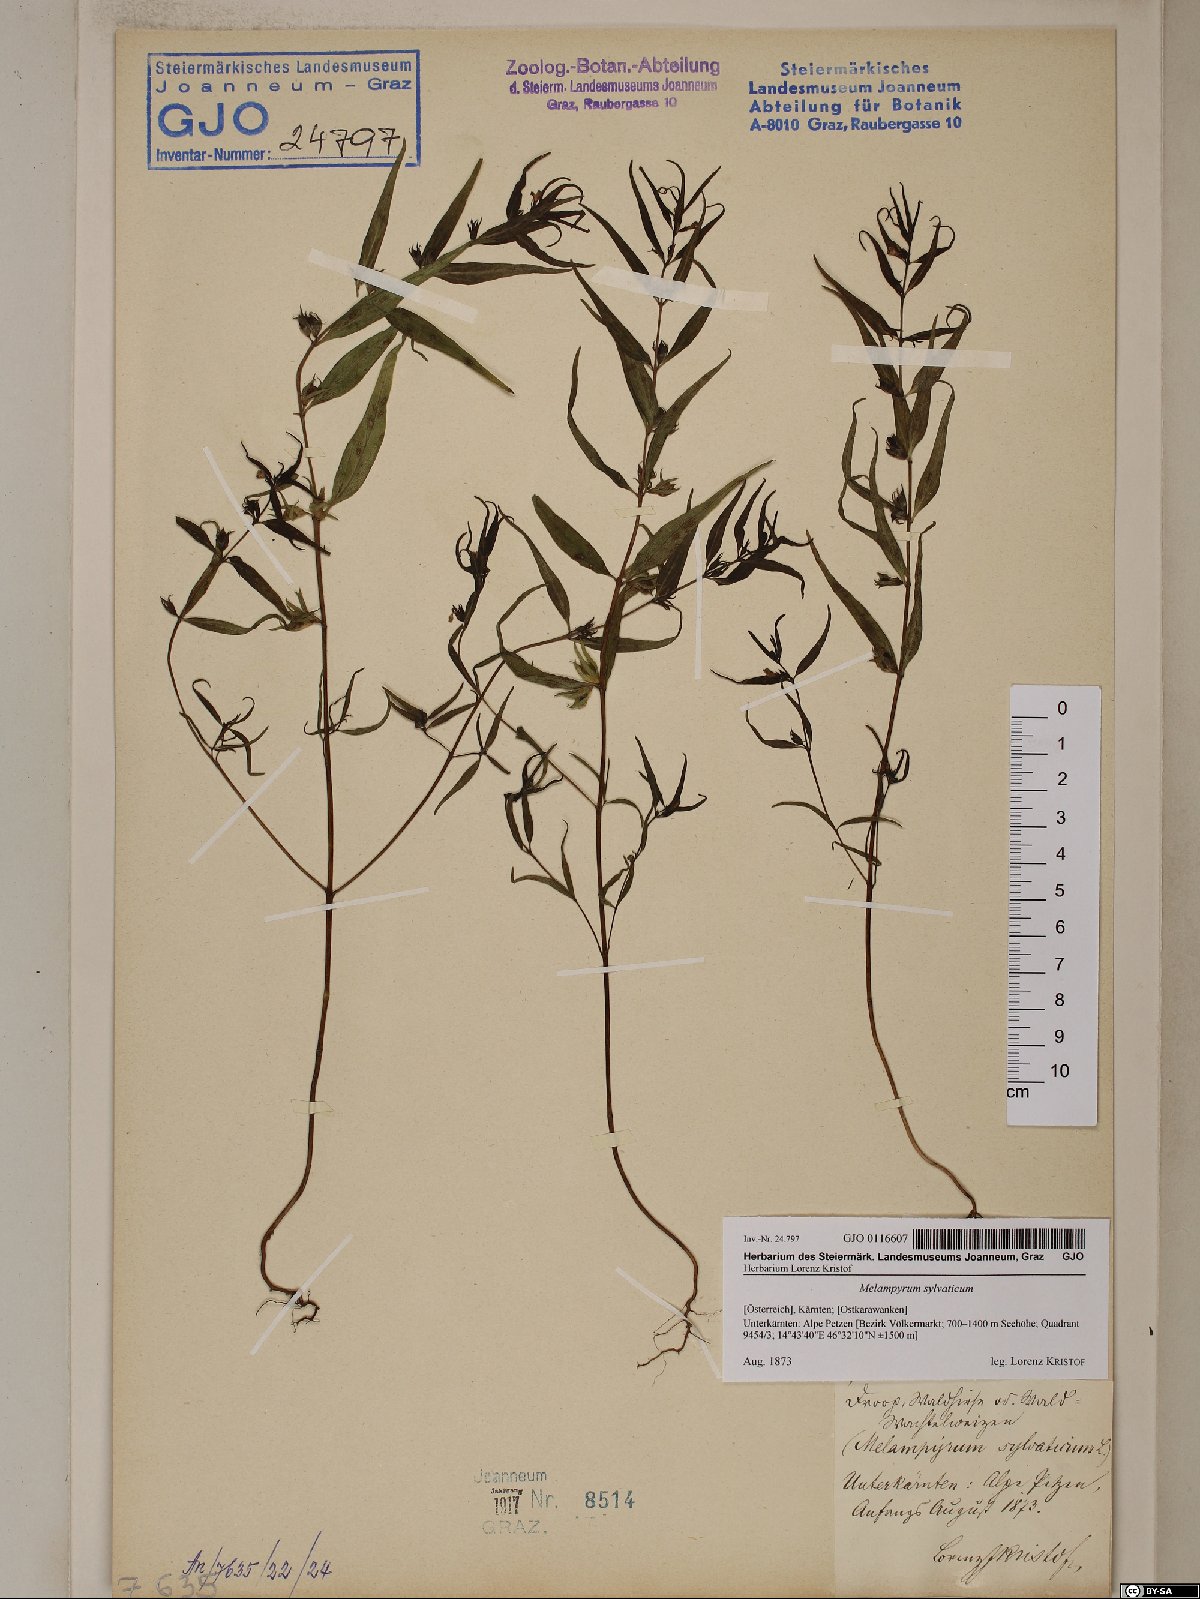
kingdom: Plantae
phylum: Tracheophyta
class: Magnoliopsida
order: Lamiales
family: Orobanchaceae
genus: Melampyrum
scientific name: Melampyrum sylvaticum
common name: Small cow-wheat
